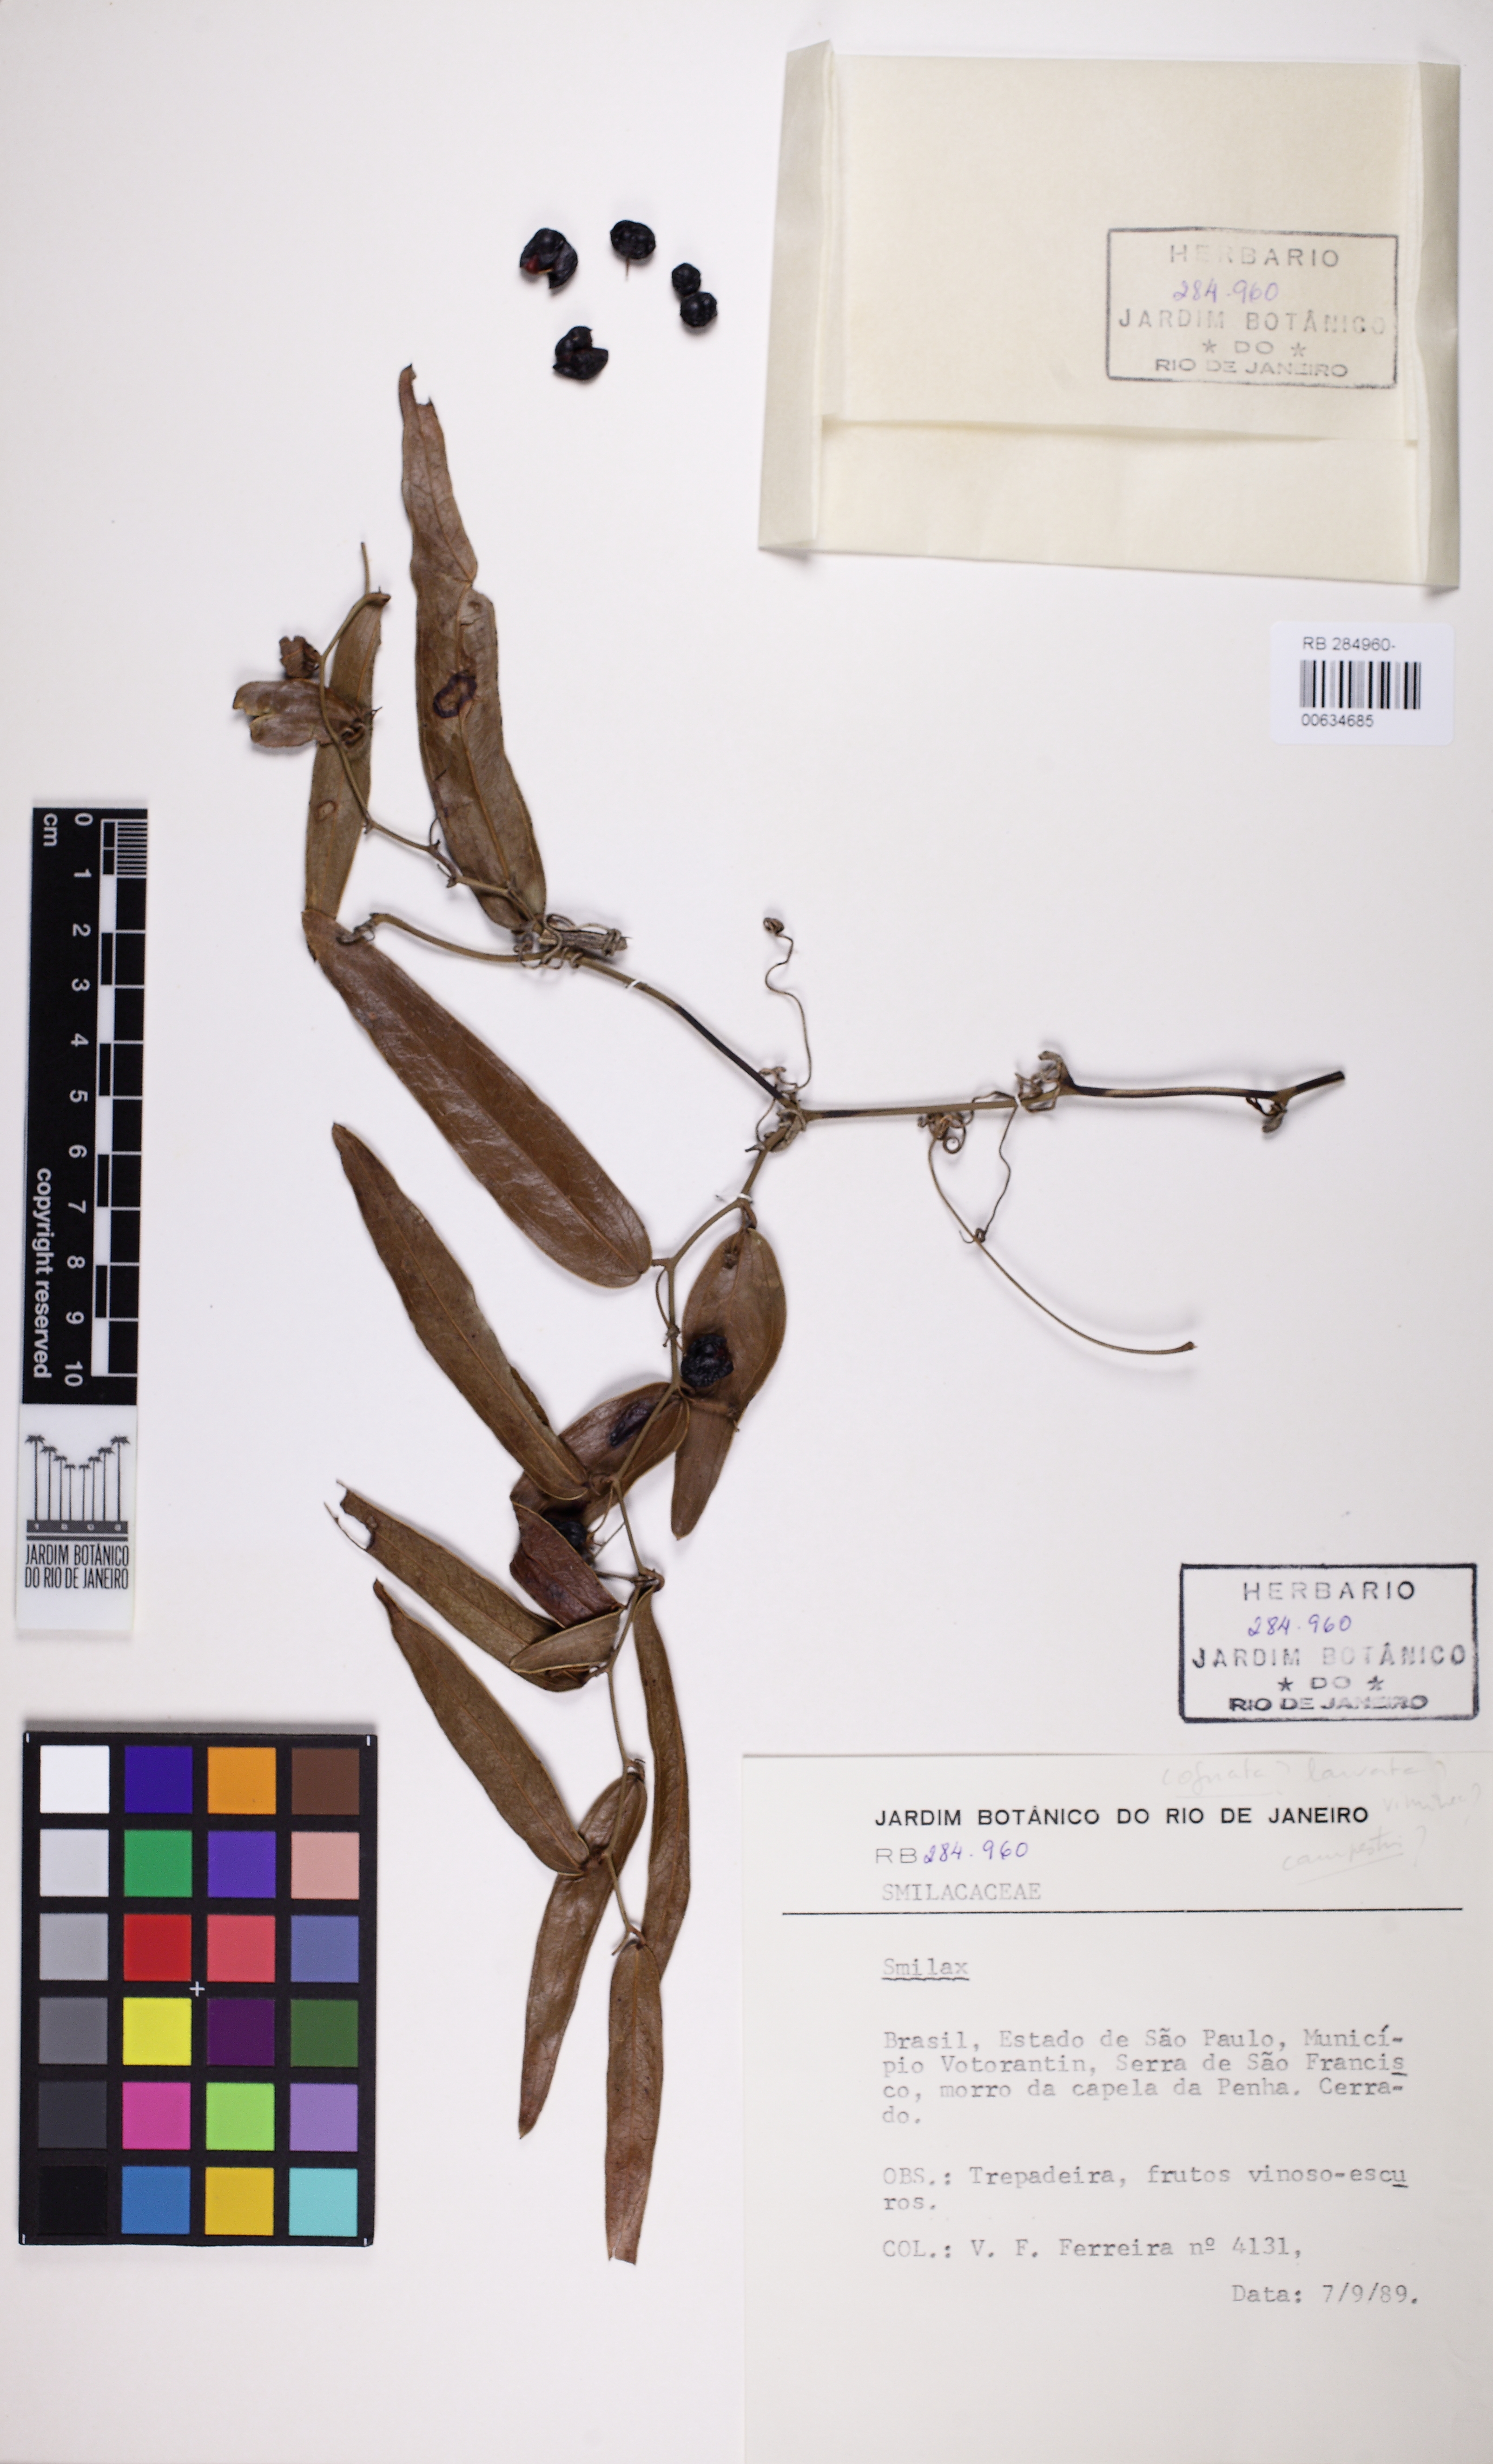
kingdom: Plantae
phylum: Tracheophyta
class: Liliopsida
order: Liliales
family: Smilacaceae
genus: Smilax
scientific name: Smilax
